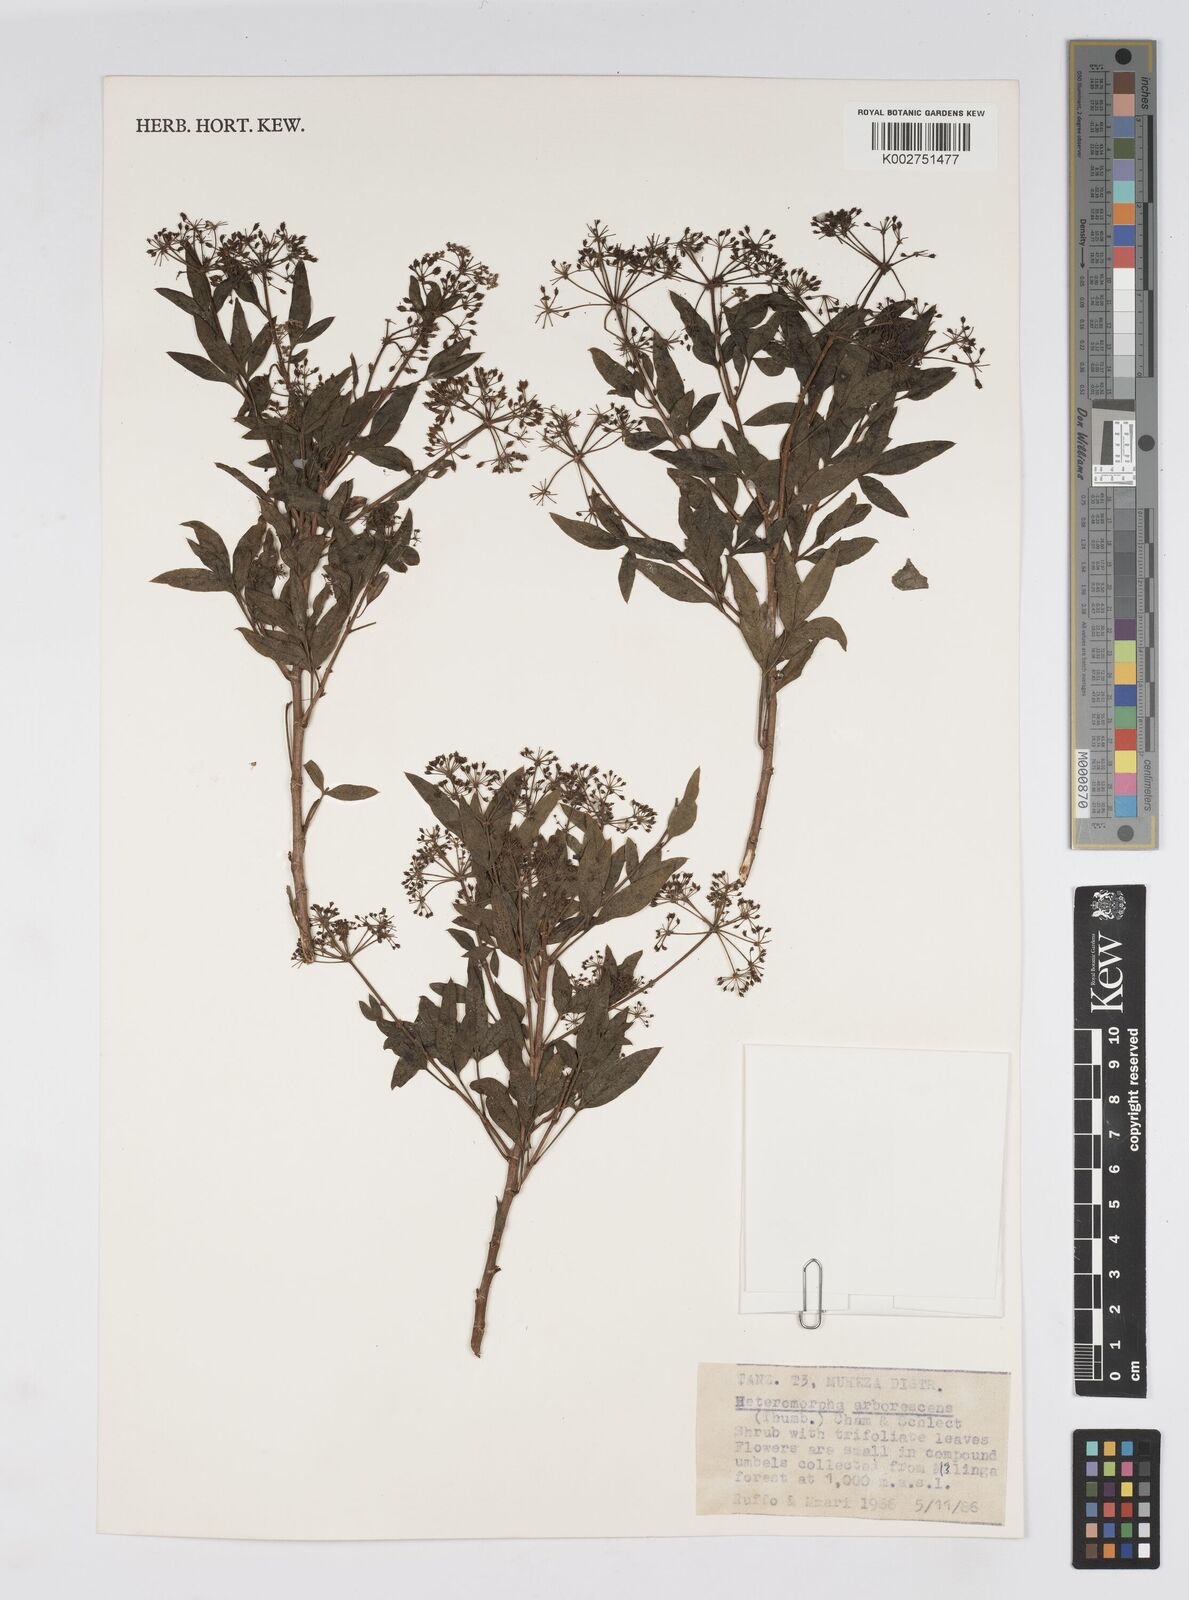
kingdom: Plantae
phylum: Tracheophyta
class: Magnoliopsida
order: Apiales
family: Apiaceae
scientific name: Apiaceae
